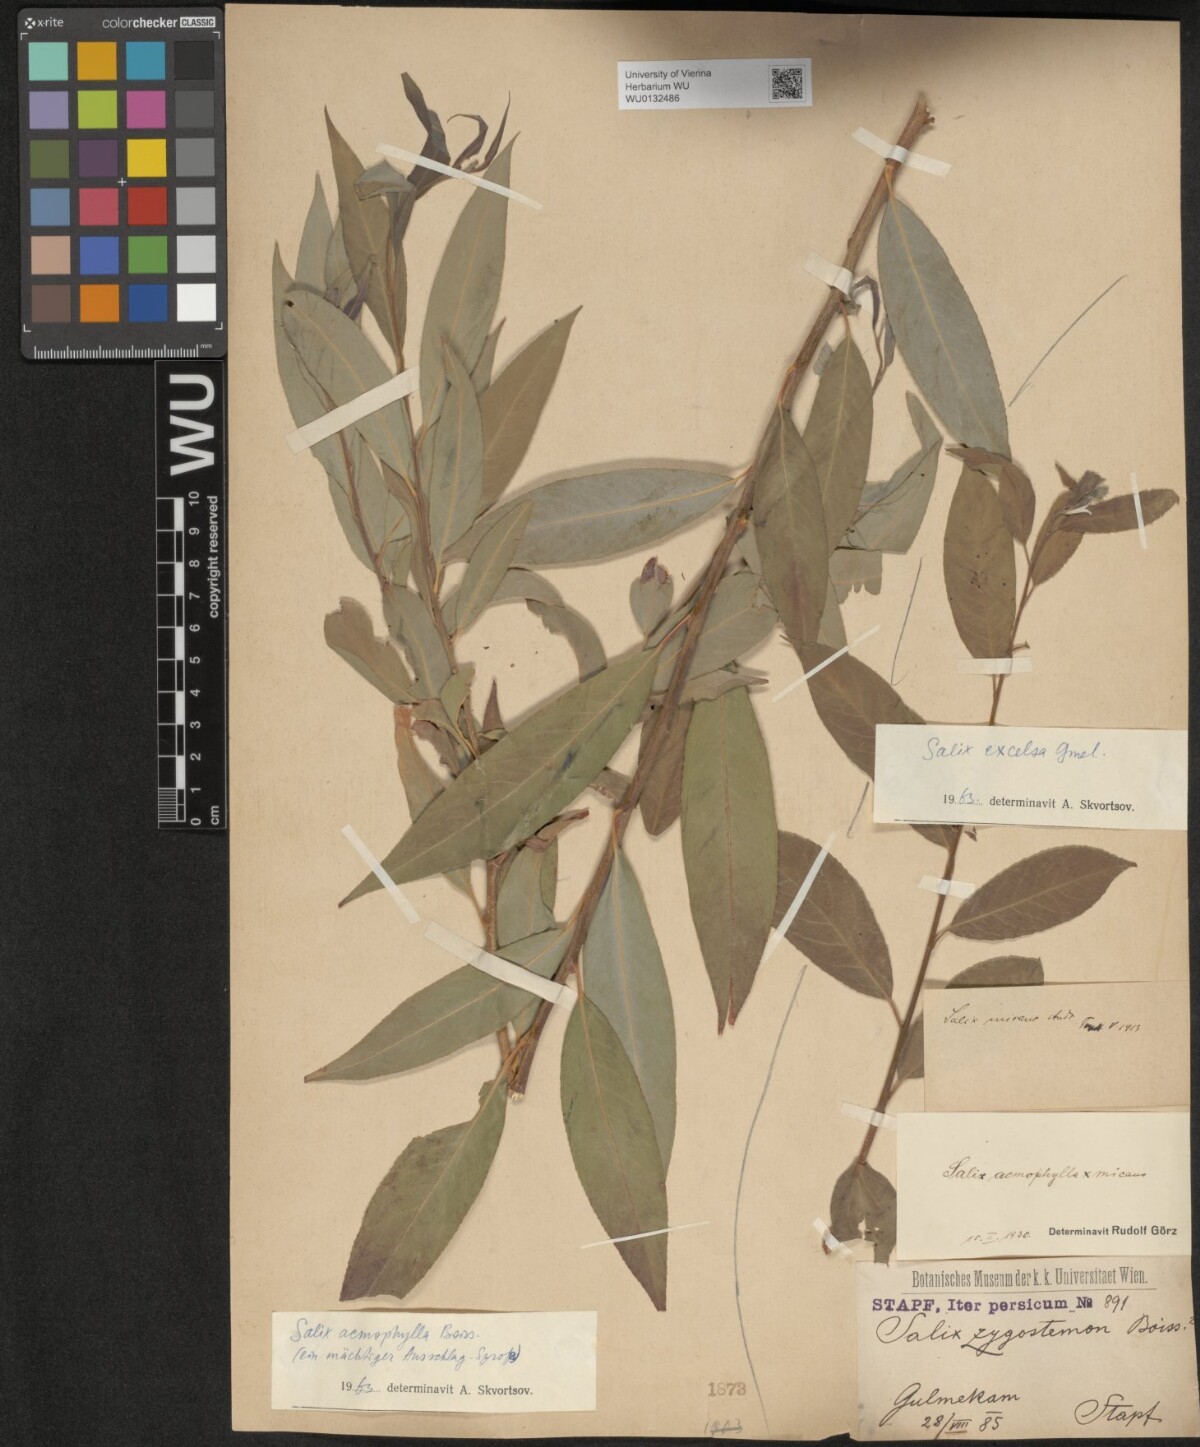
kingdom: Plantae
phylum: Tracheophyta
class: Magnoliopsida
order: Malpighiales
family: Salicaceae
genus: Salix
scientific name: Salix acmophylla
